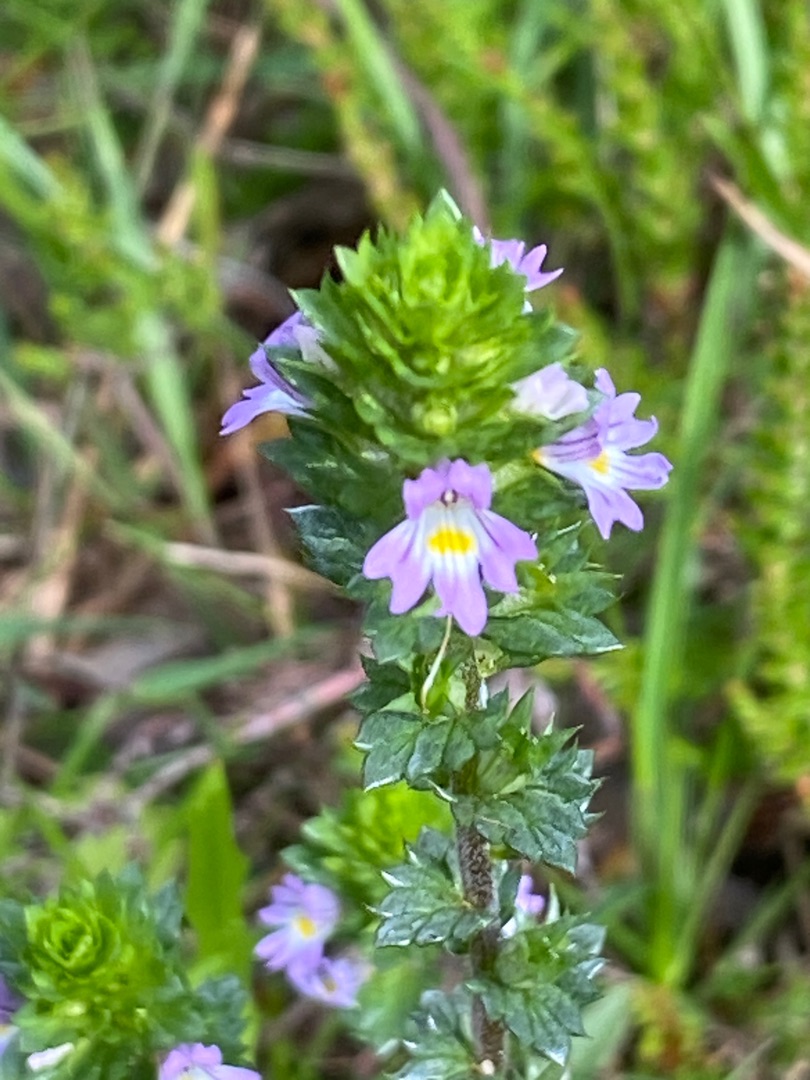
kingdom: Plantae
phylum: Tracheophyta
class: Magnoliopsida
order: Lamiales
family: Orobanchaceae
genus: Euphrasia
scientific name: Euphrasia nemorosa
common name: Kort øjentrøst
